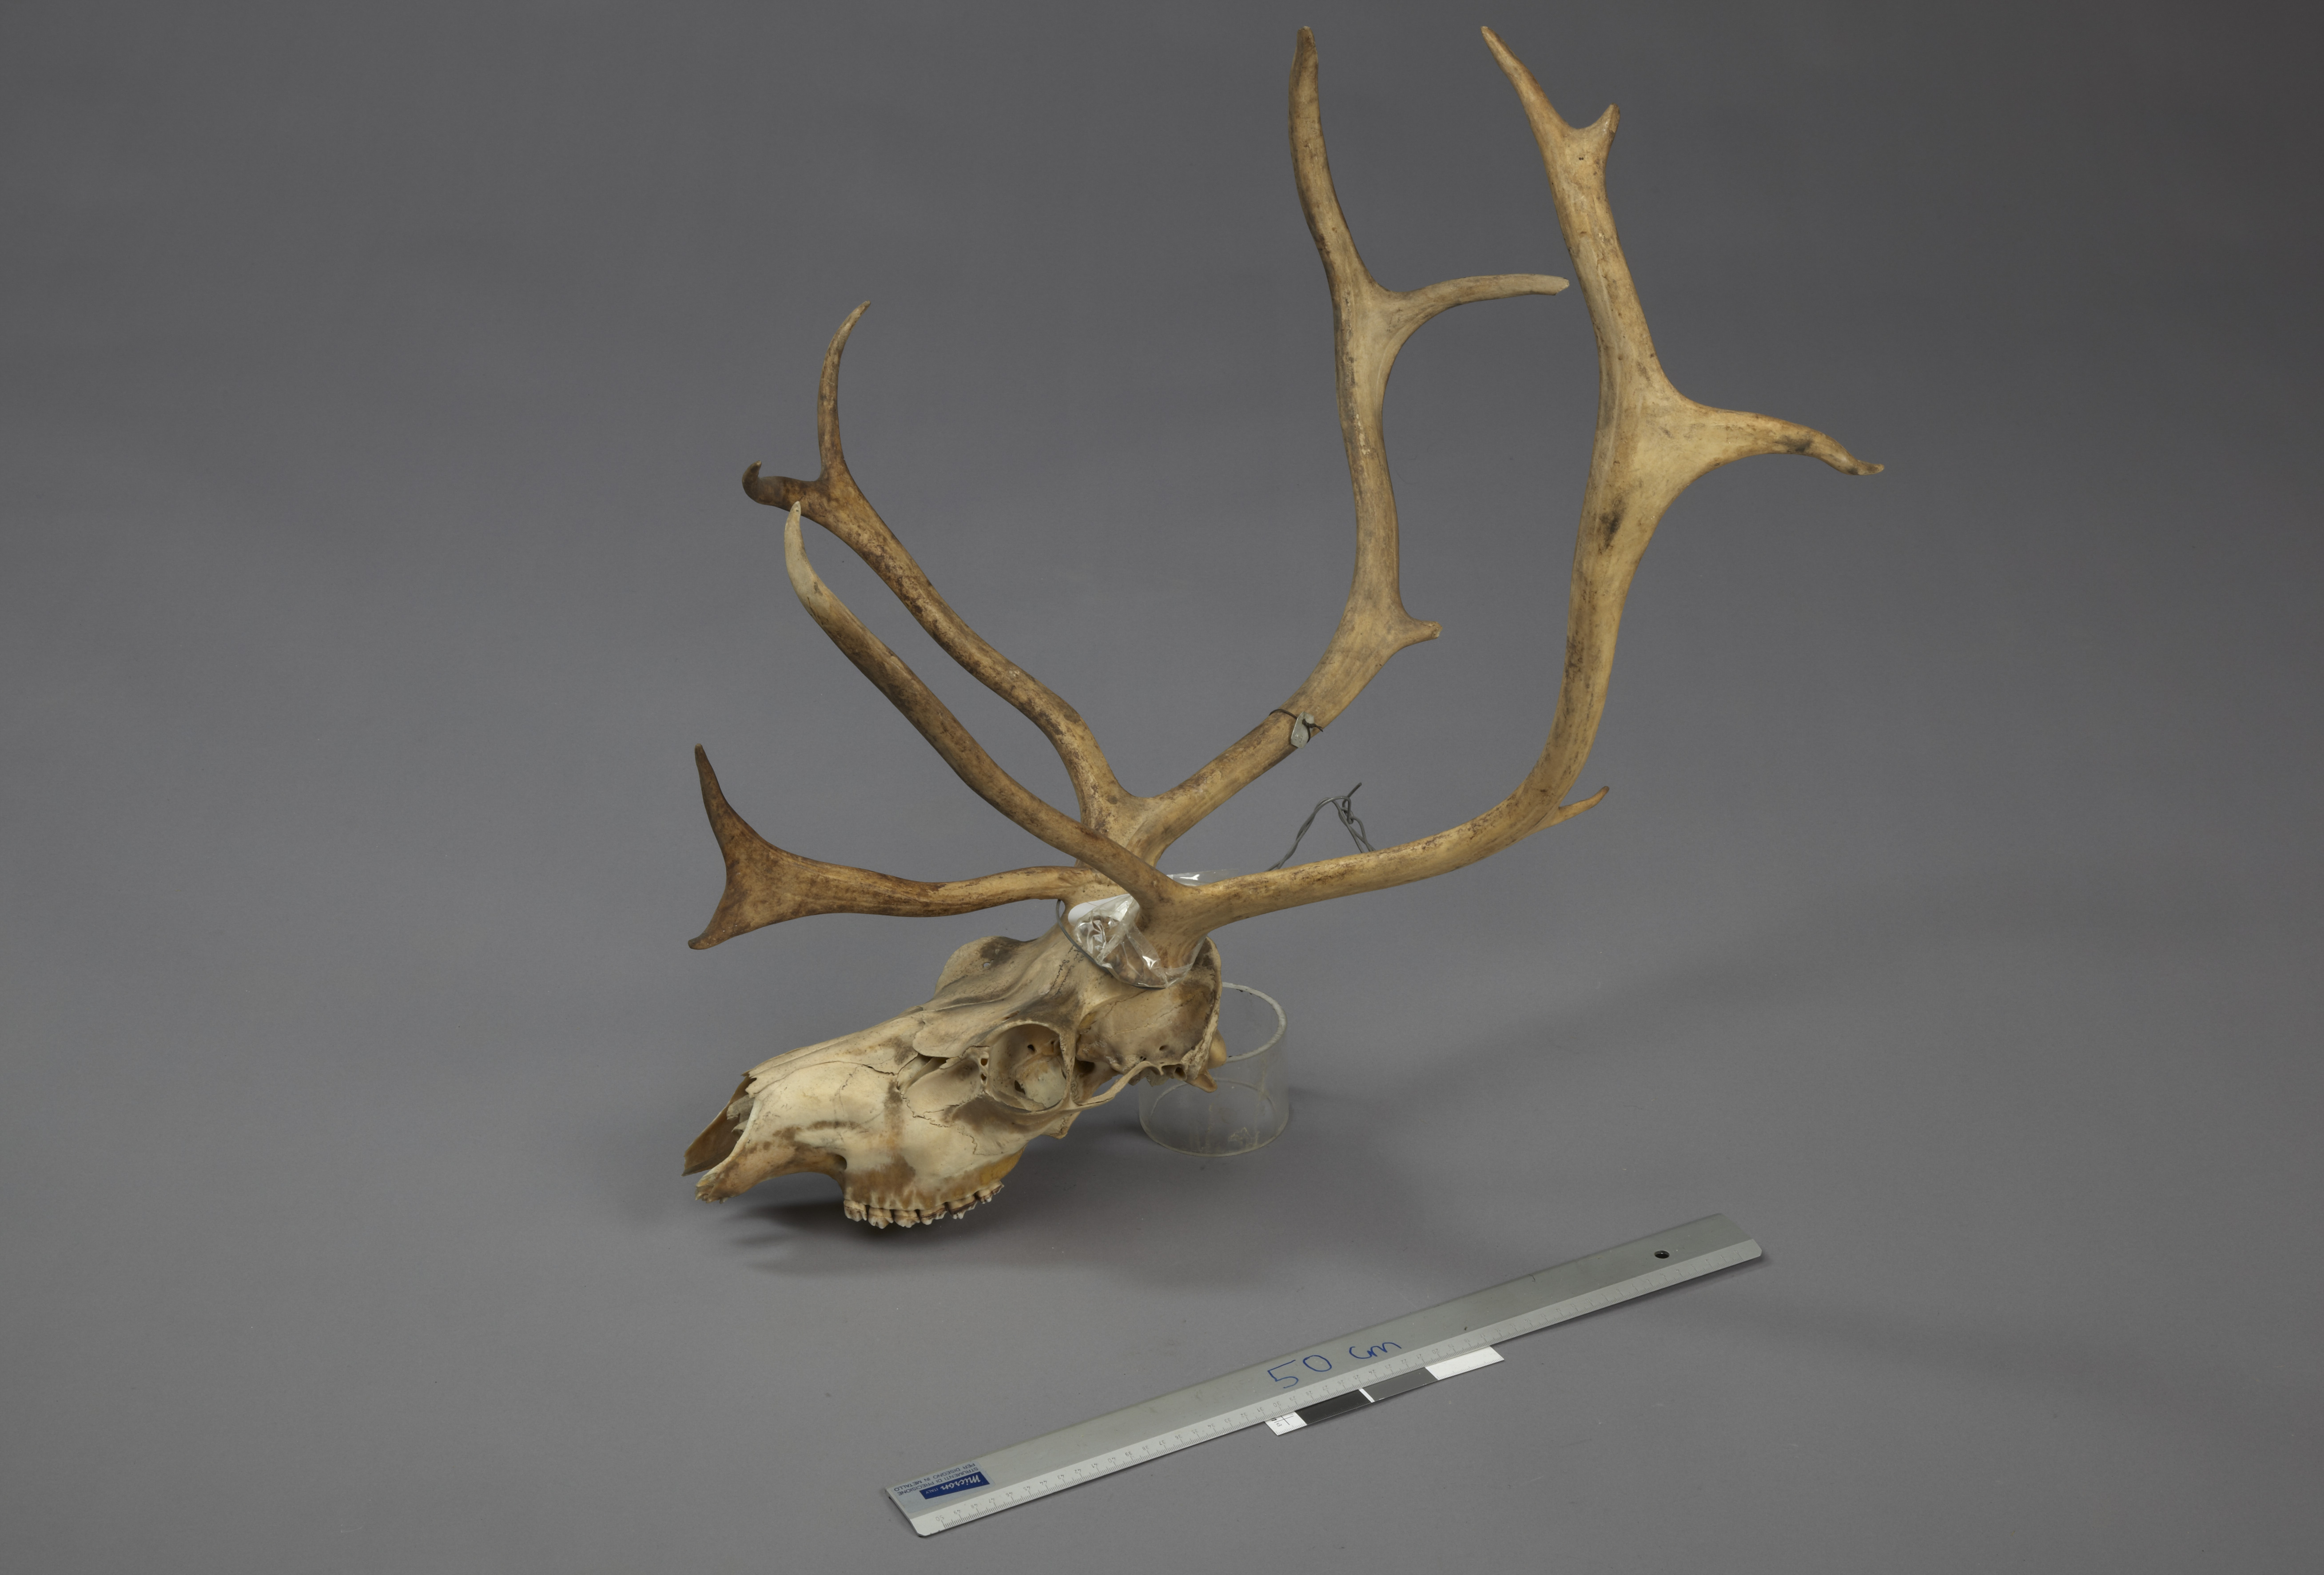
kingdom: Animalia
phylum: Chordata
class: Mammalia
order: Artiodactyla
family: Cervidae
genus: Rangifer
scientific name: Rangifer tarandus
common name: Reindeer
